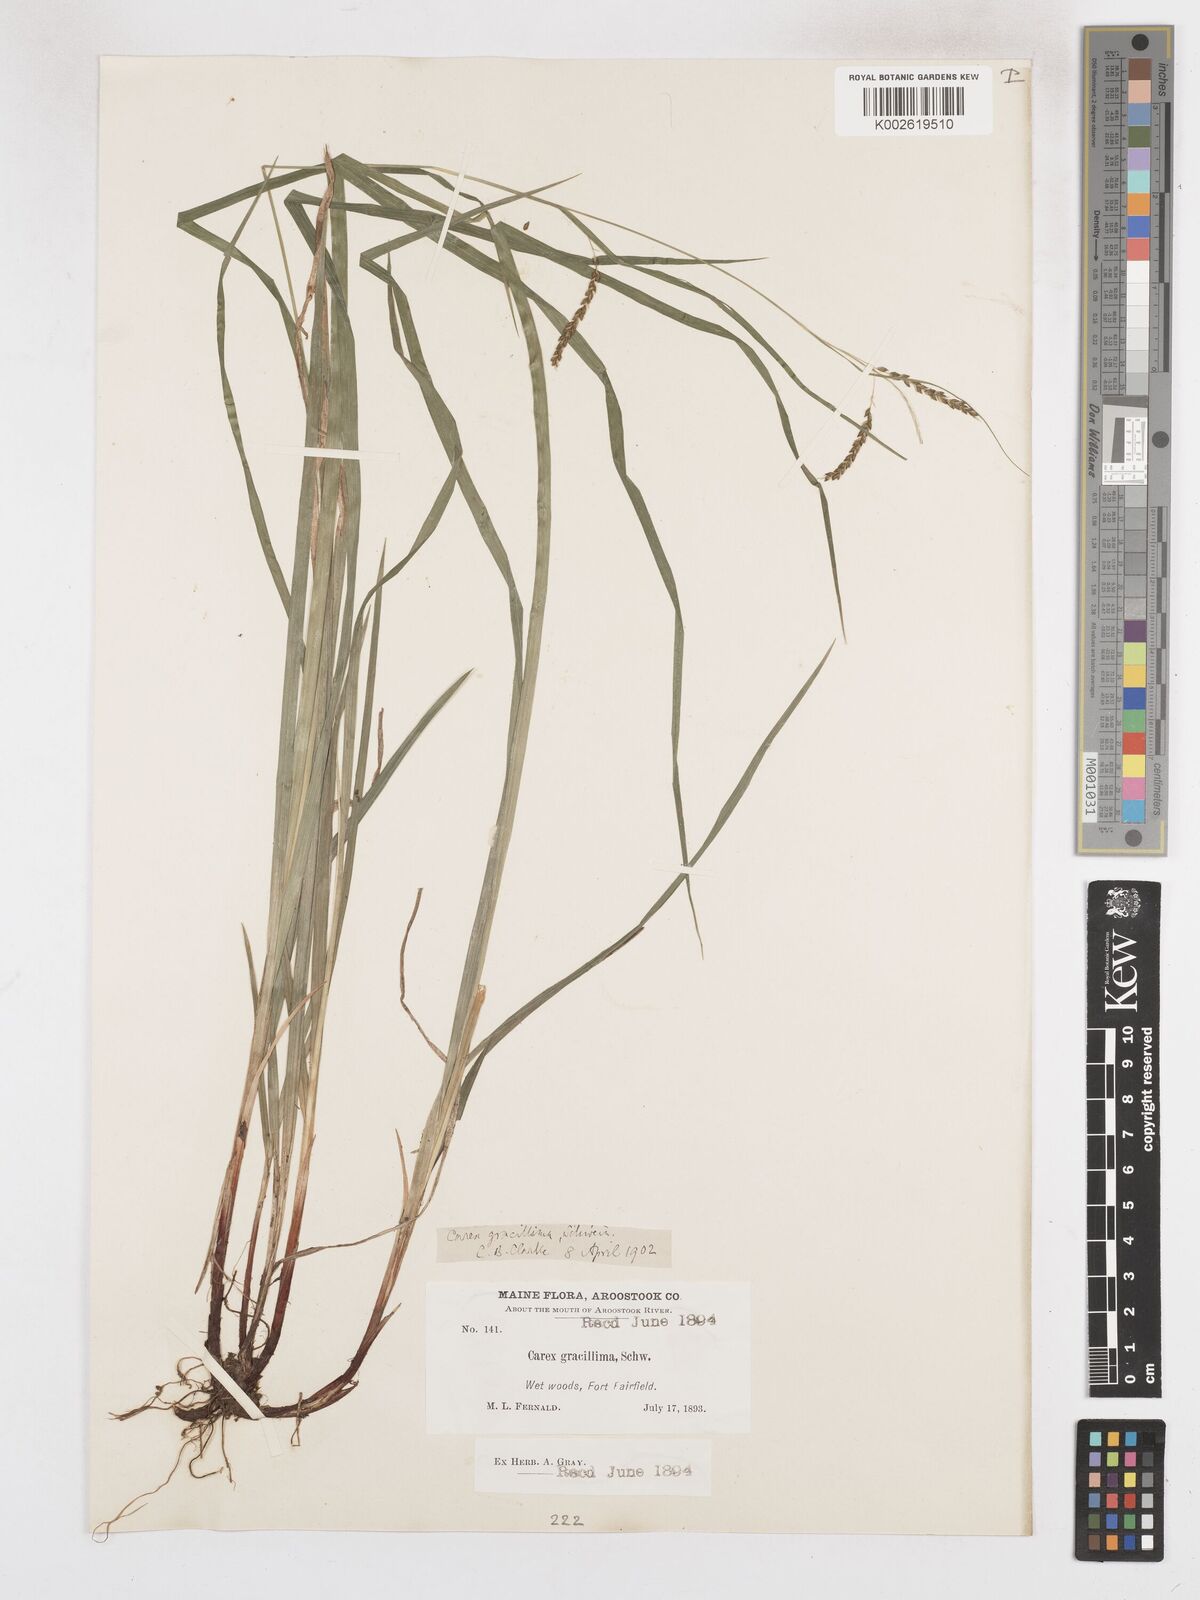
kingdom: Plantae
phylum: Tracheophyta
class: Liliopsida
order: Poales
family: Cyperaceae
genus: Carex
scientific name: Carex gracillima
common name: Graceful sedge
